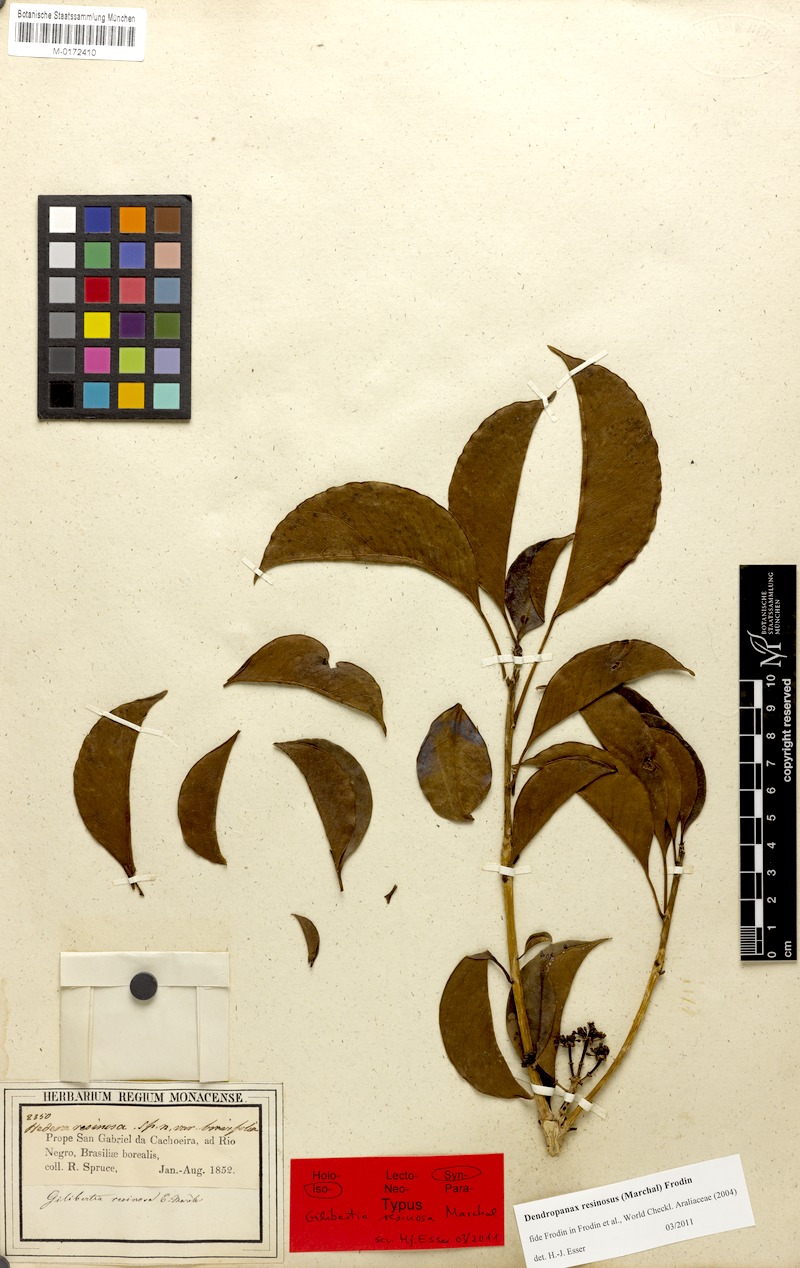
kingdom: Plantae
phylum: Tracheophyta
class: Magnoliopsida
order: Apiales
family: Araliaceae
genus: Dendropanax
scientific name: Dendropanax resinosus
